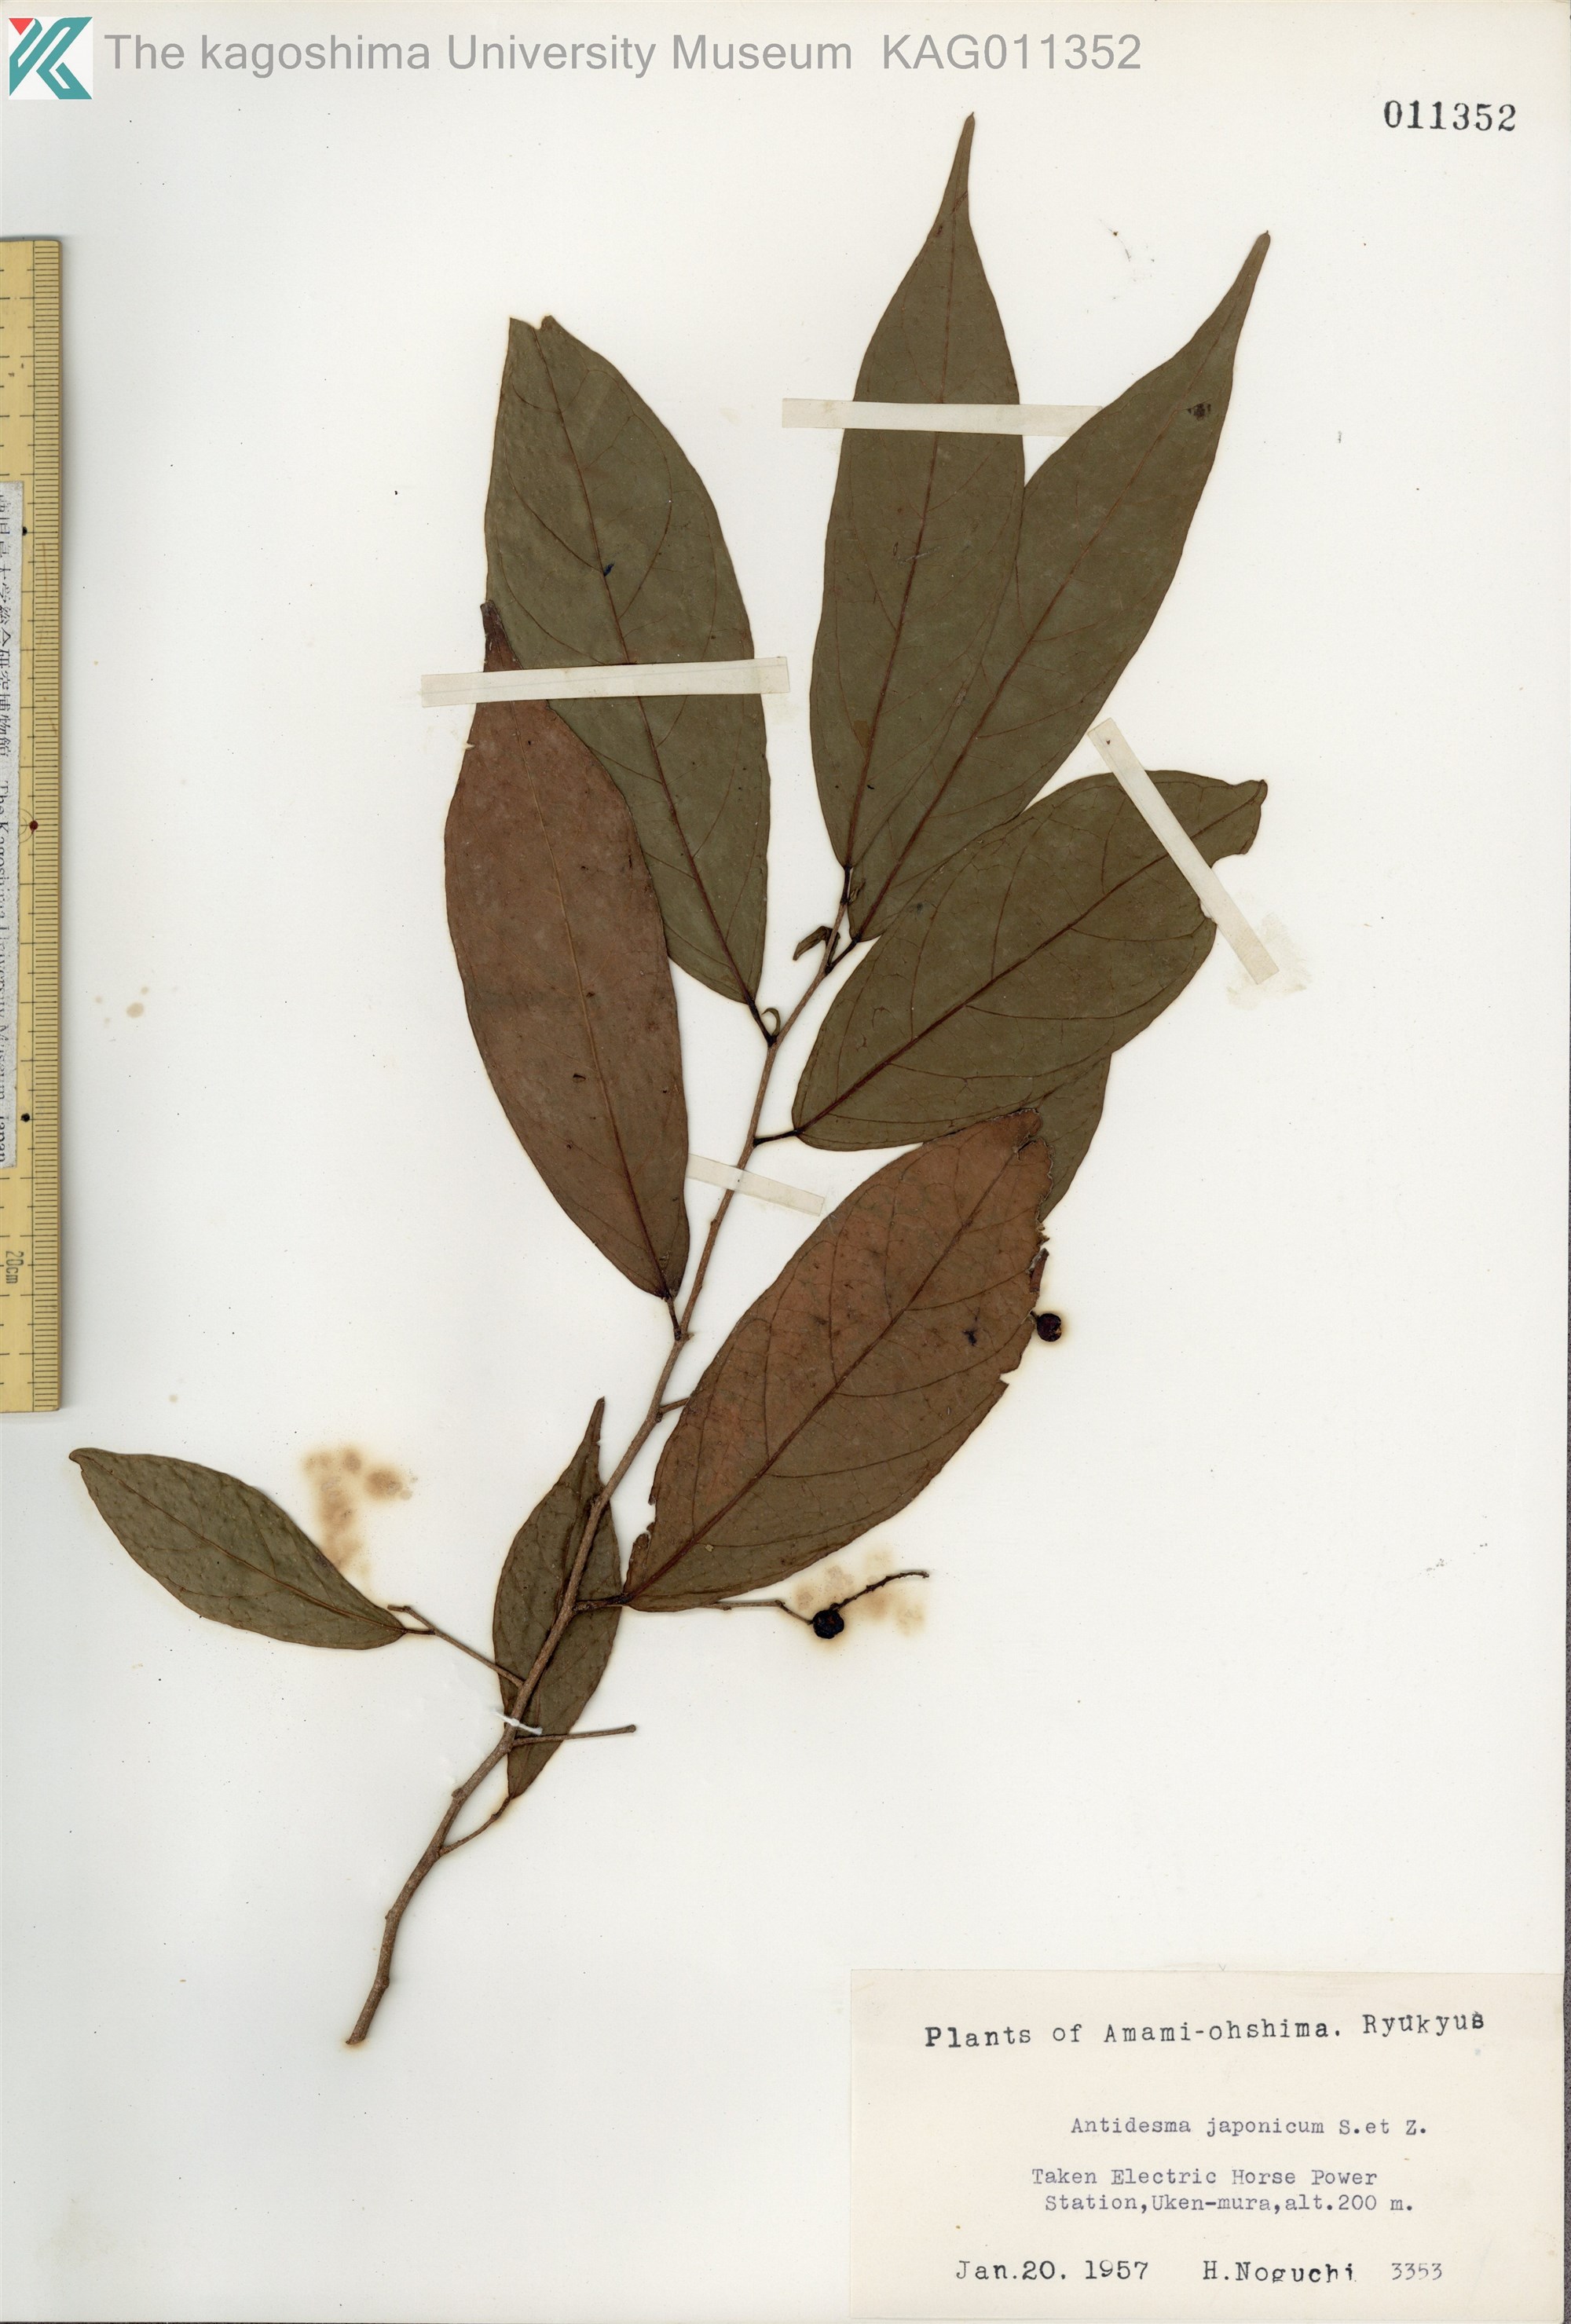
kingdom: Plantae
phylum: Tracheophyta
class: Magnoliopsida
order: Malpighiales
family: Phyllanthaceae
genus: Antidesma
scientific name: Antidesma japonicum
